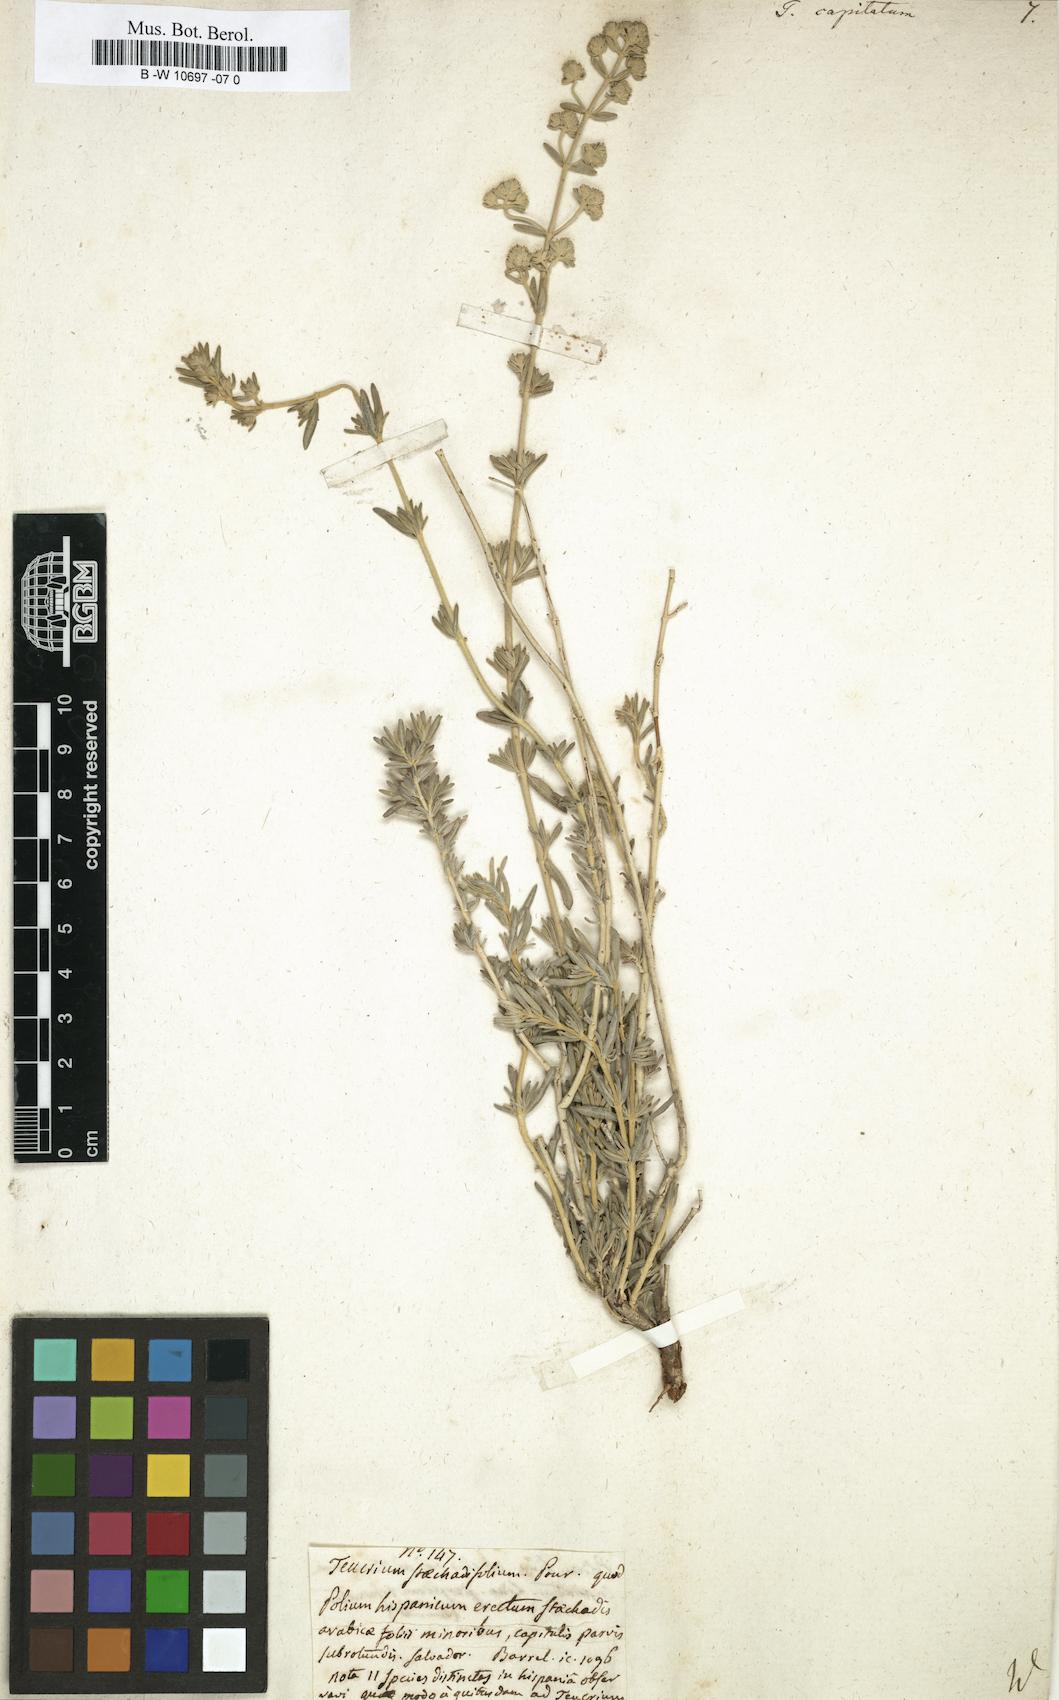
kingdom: Plantae
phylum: Tracheophyta
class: Magnoliopsida
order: Lamiales
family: Lamiaceae
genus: Teucrium
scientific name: Teucrium capitatum
